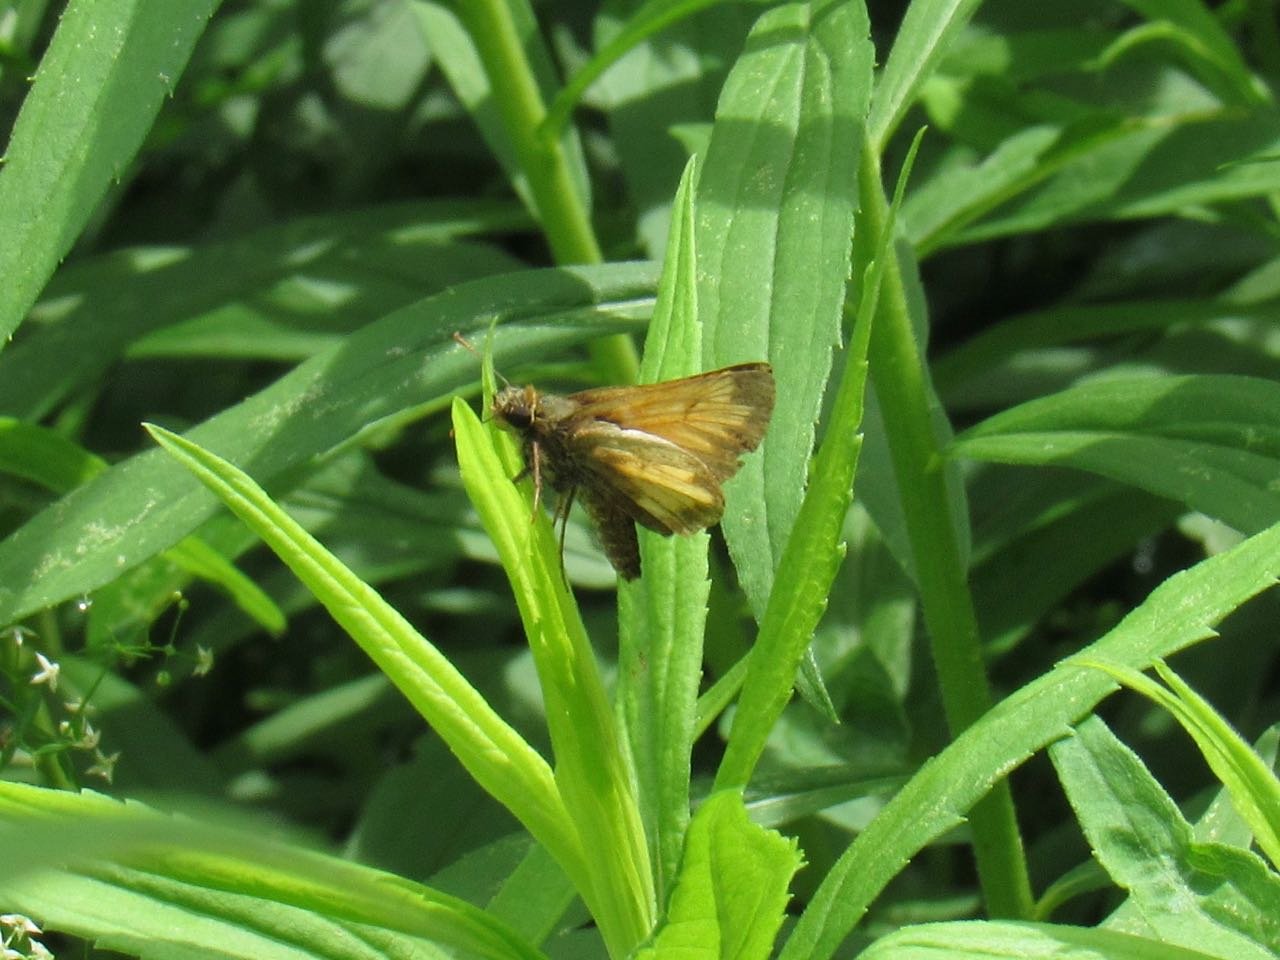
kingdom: Animalia
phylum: Arthropoda
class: Insecta
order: Lepidoptera
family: Hesperiidae
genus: Lon
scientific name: Lon hobomok
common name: Hobomok Skipper
